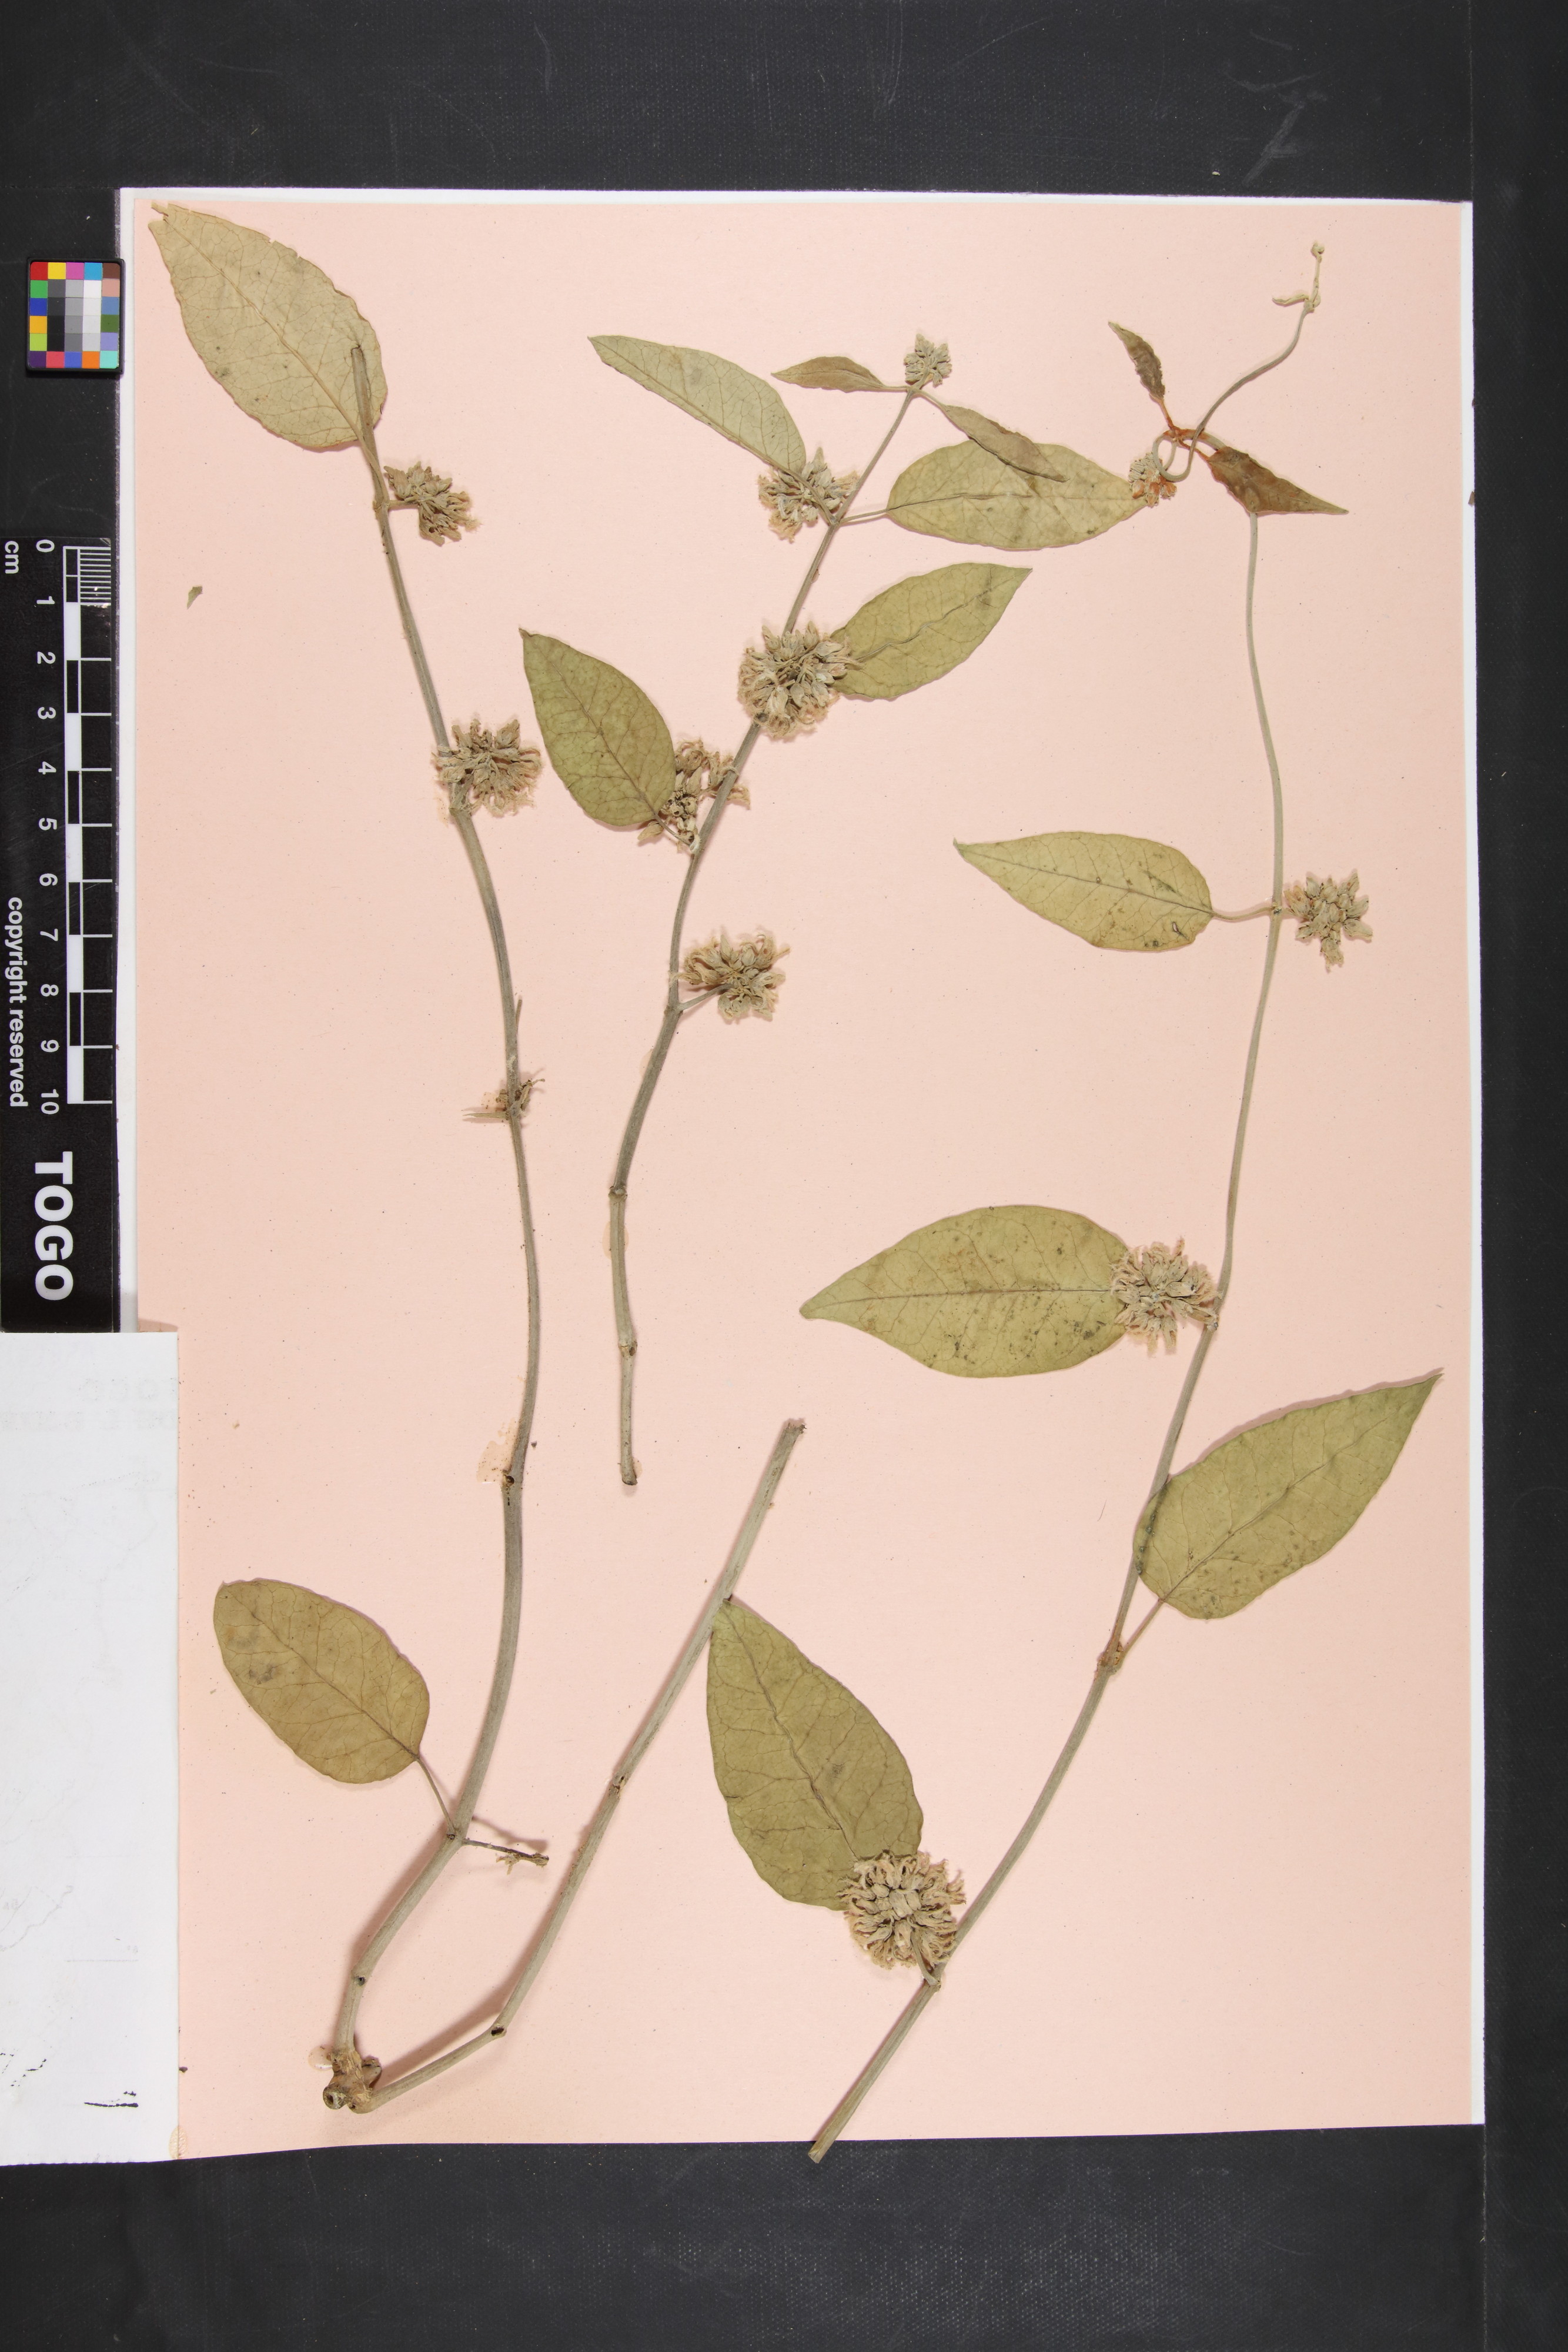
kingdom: Plantae
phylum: Tracheophyta
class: Magnoliopsida
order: Gentianales
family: Apocynaceae
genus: Leptadenia
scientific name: Leptadenia lanceolata
